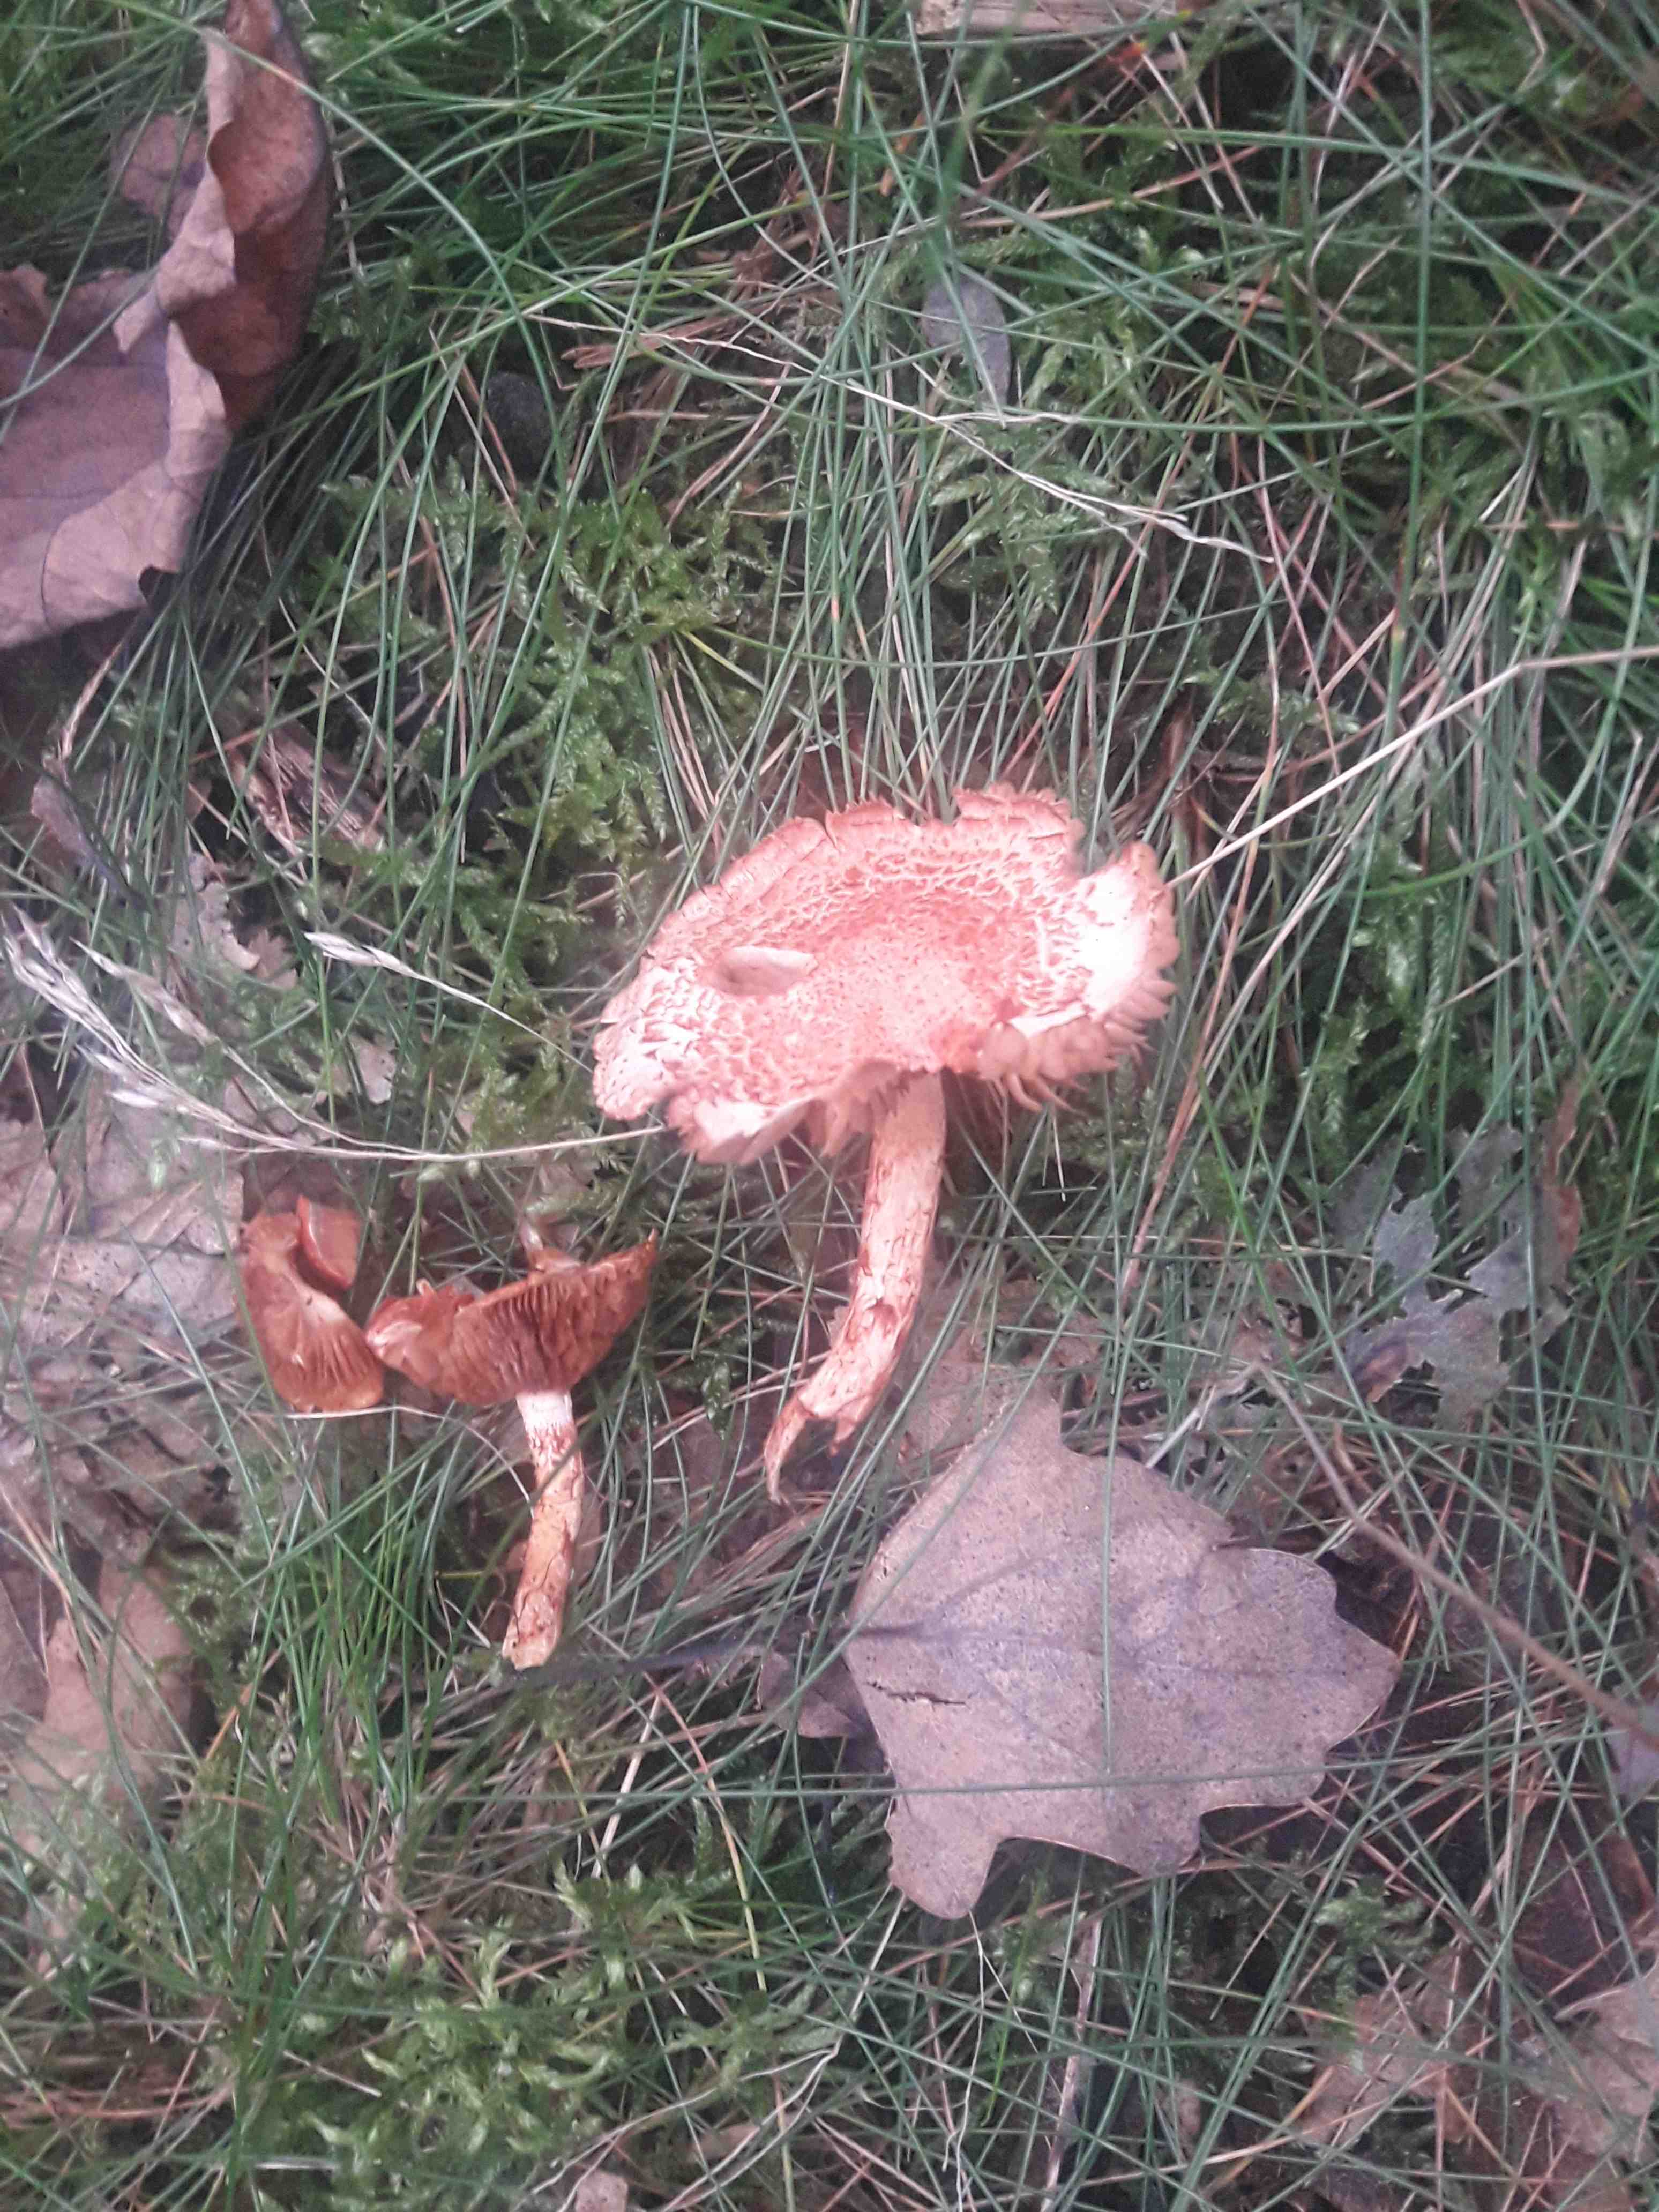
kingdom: Fungi
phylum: Basidiomycota
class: Agaricomycetes
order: Agaricales
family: Cortinariaceae
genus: Cortinarius
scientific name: Cortinarius bolaris
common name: cinnoberskællet slørhat
